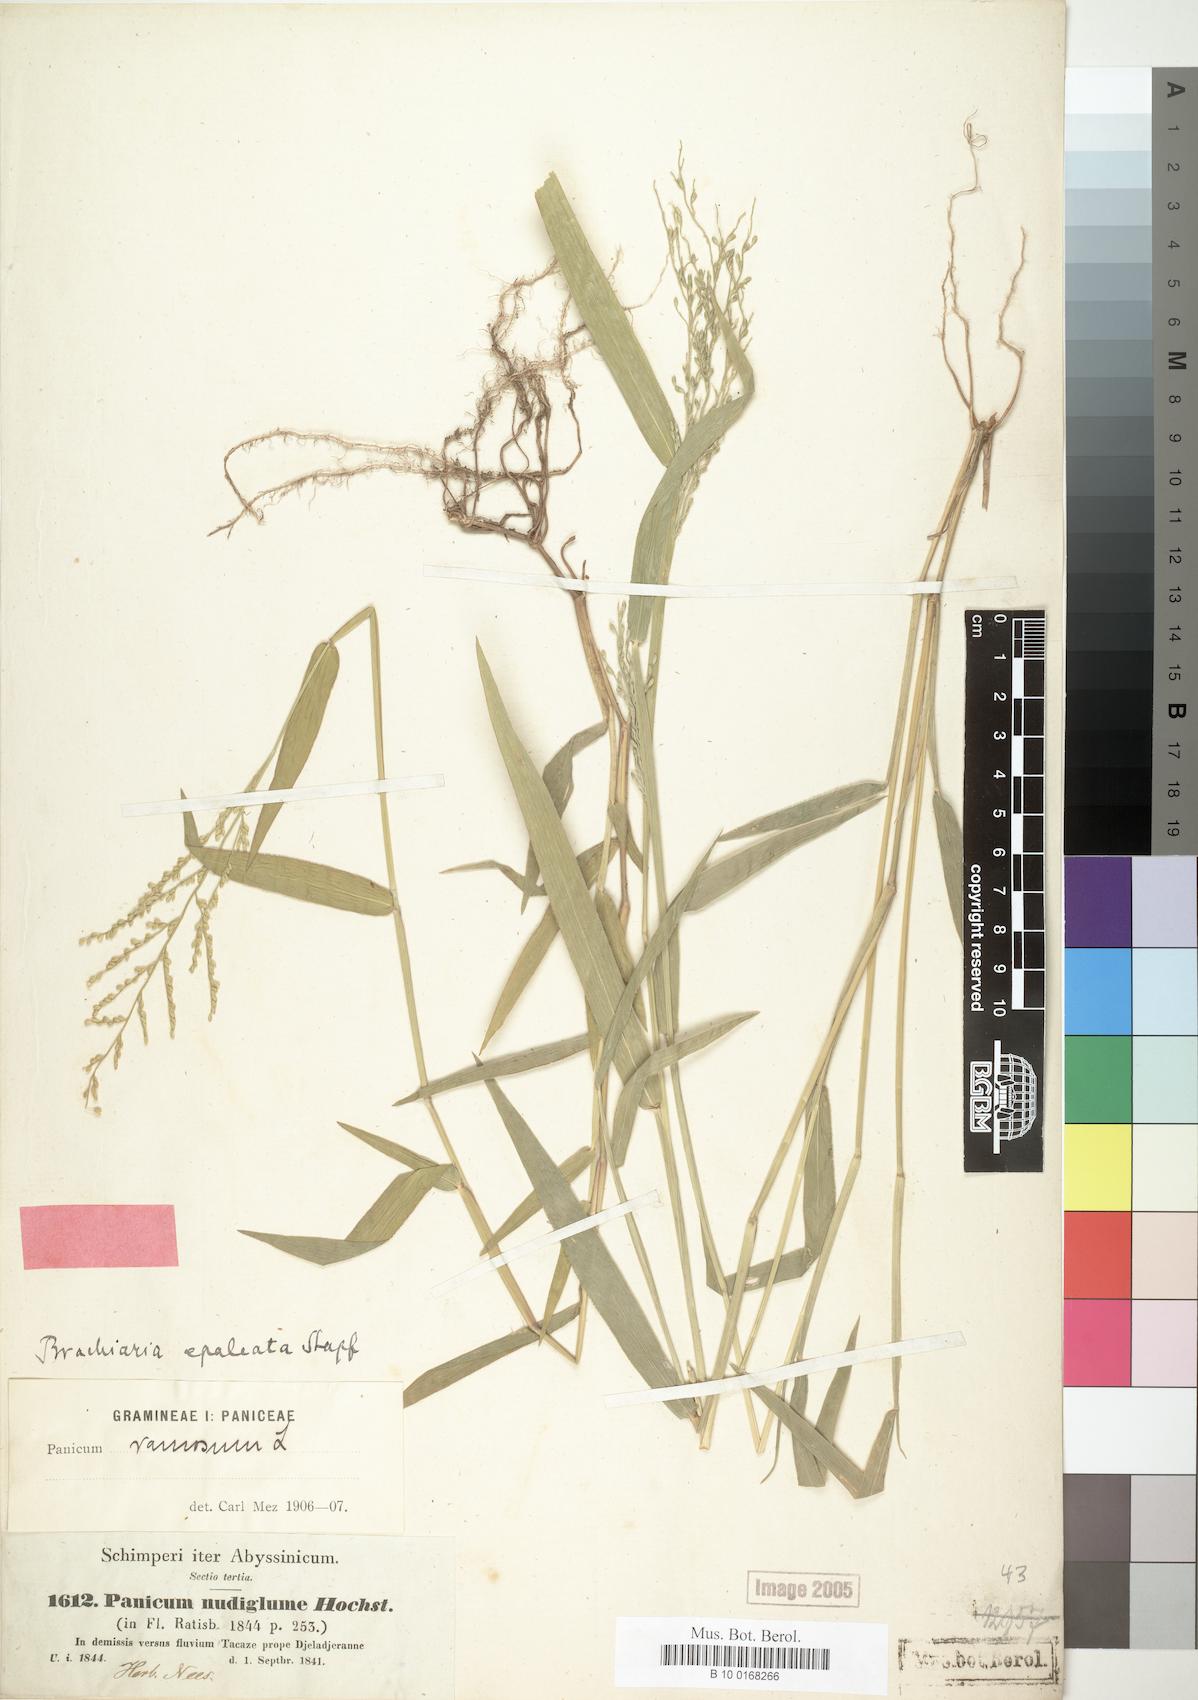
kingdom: Plantae
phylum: Tracheophyta
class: Liliopsida
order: Poales
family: Poaceae
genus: Urochloa
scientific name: Urochloa comata
